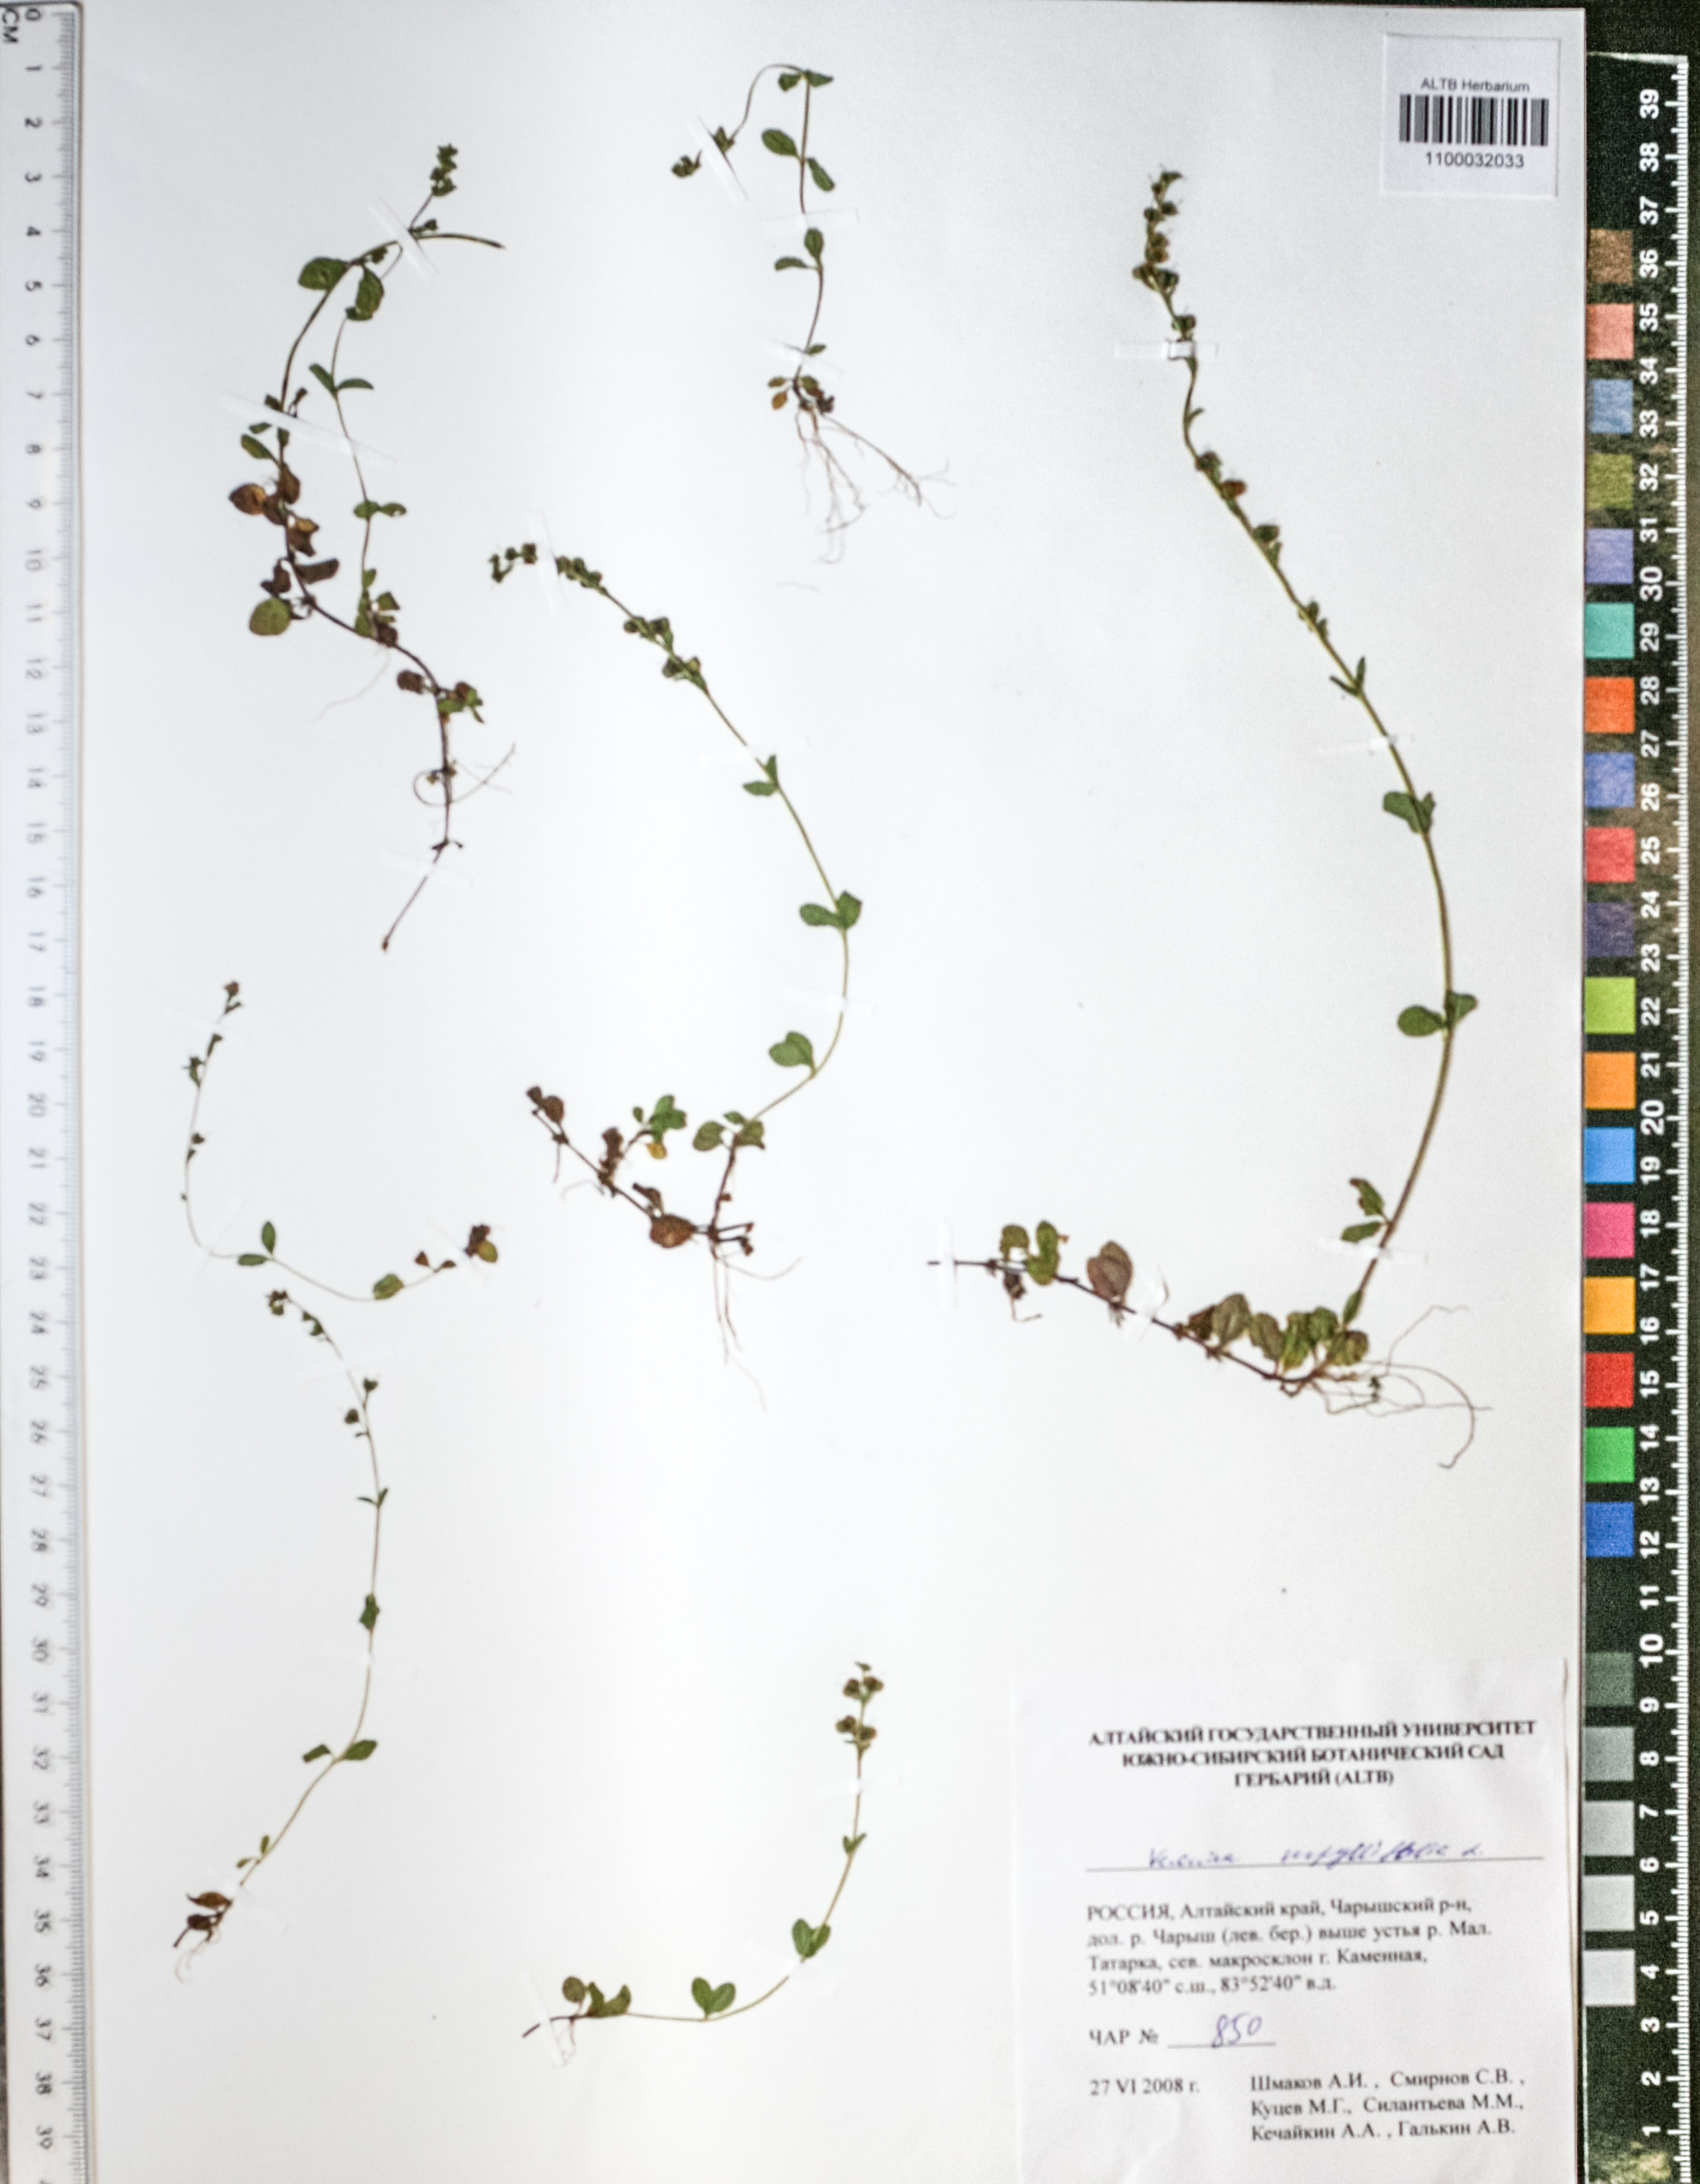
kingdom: Plantae
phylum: Tracheophyta
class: Magnoliopsida
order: Lamiales
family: Plantaginaceae
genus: Veronica
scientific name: Veronica serpyllifolia
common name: Thyme-leaved speedwell
